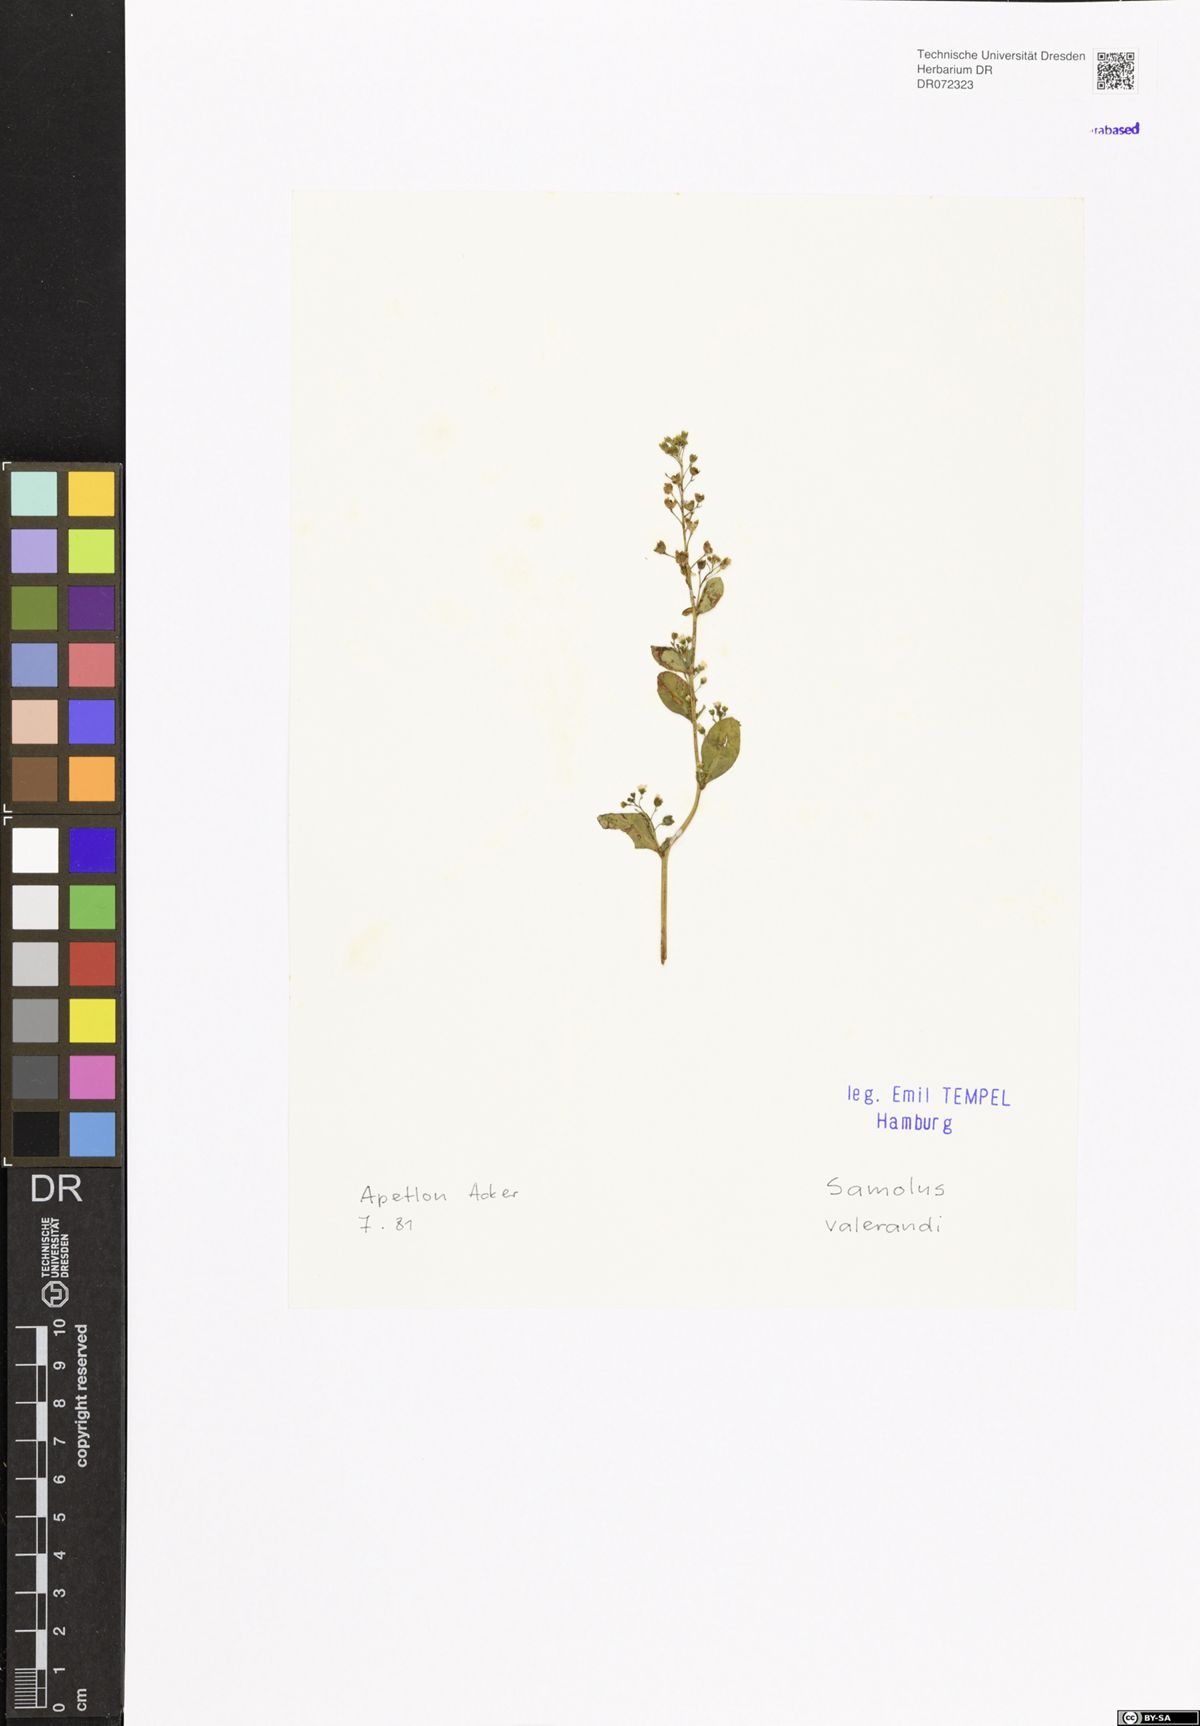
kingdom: Plantae
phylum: Tracheophyta
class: Magnoliopsida
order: Ericales
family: Primulaceae
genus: Samolus
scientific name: Samolus valerandi
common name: Brookweed
